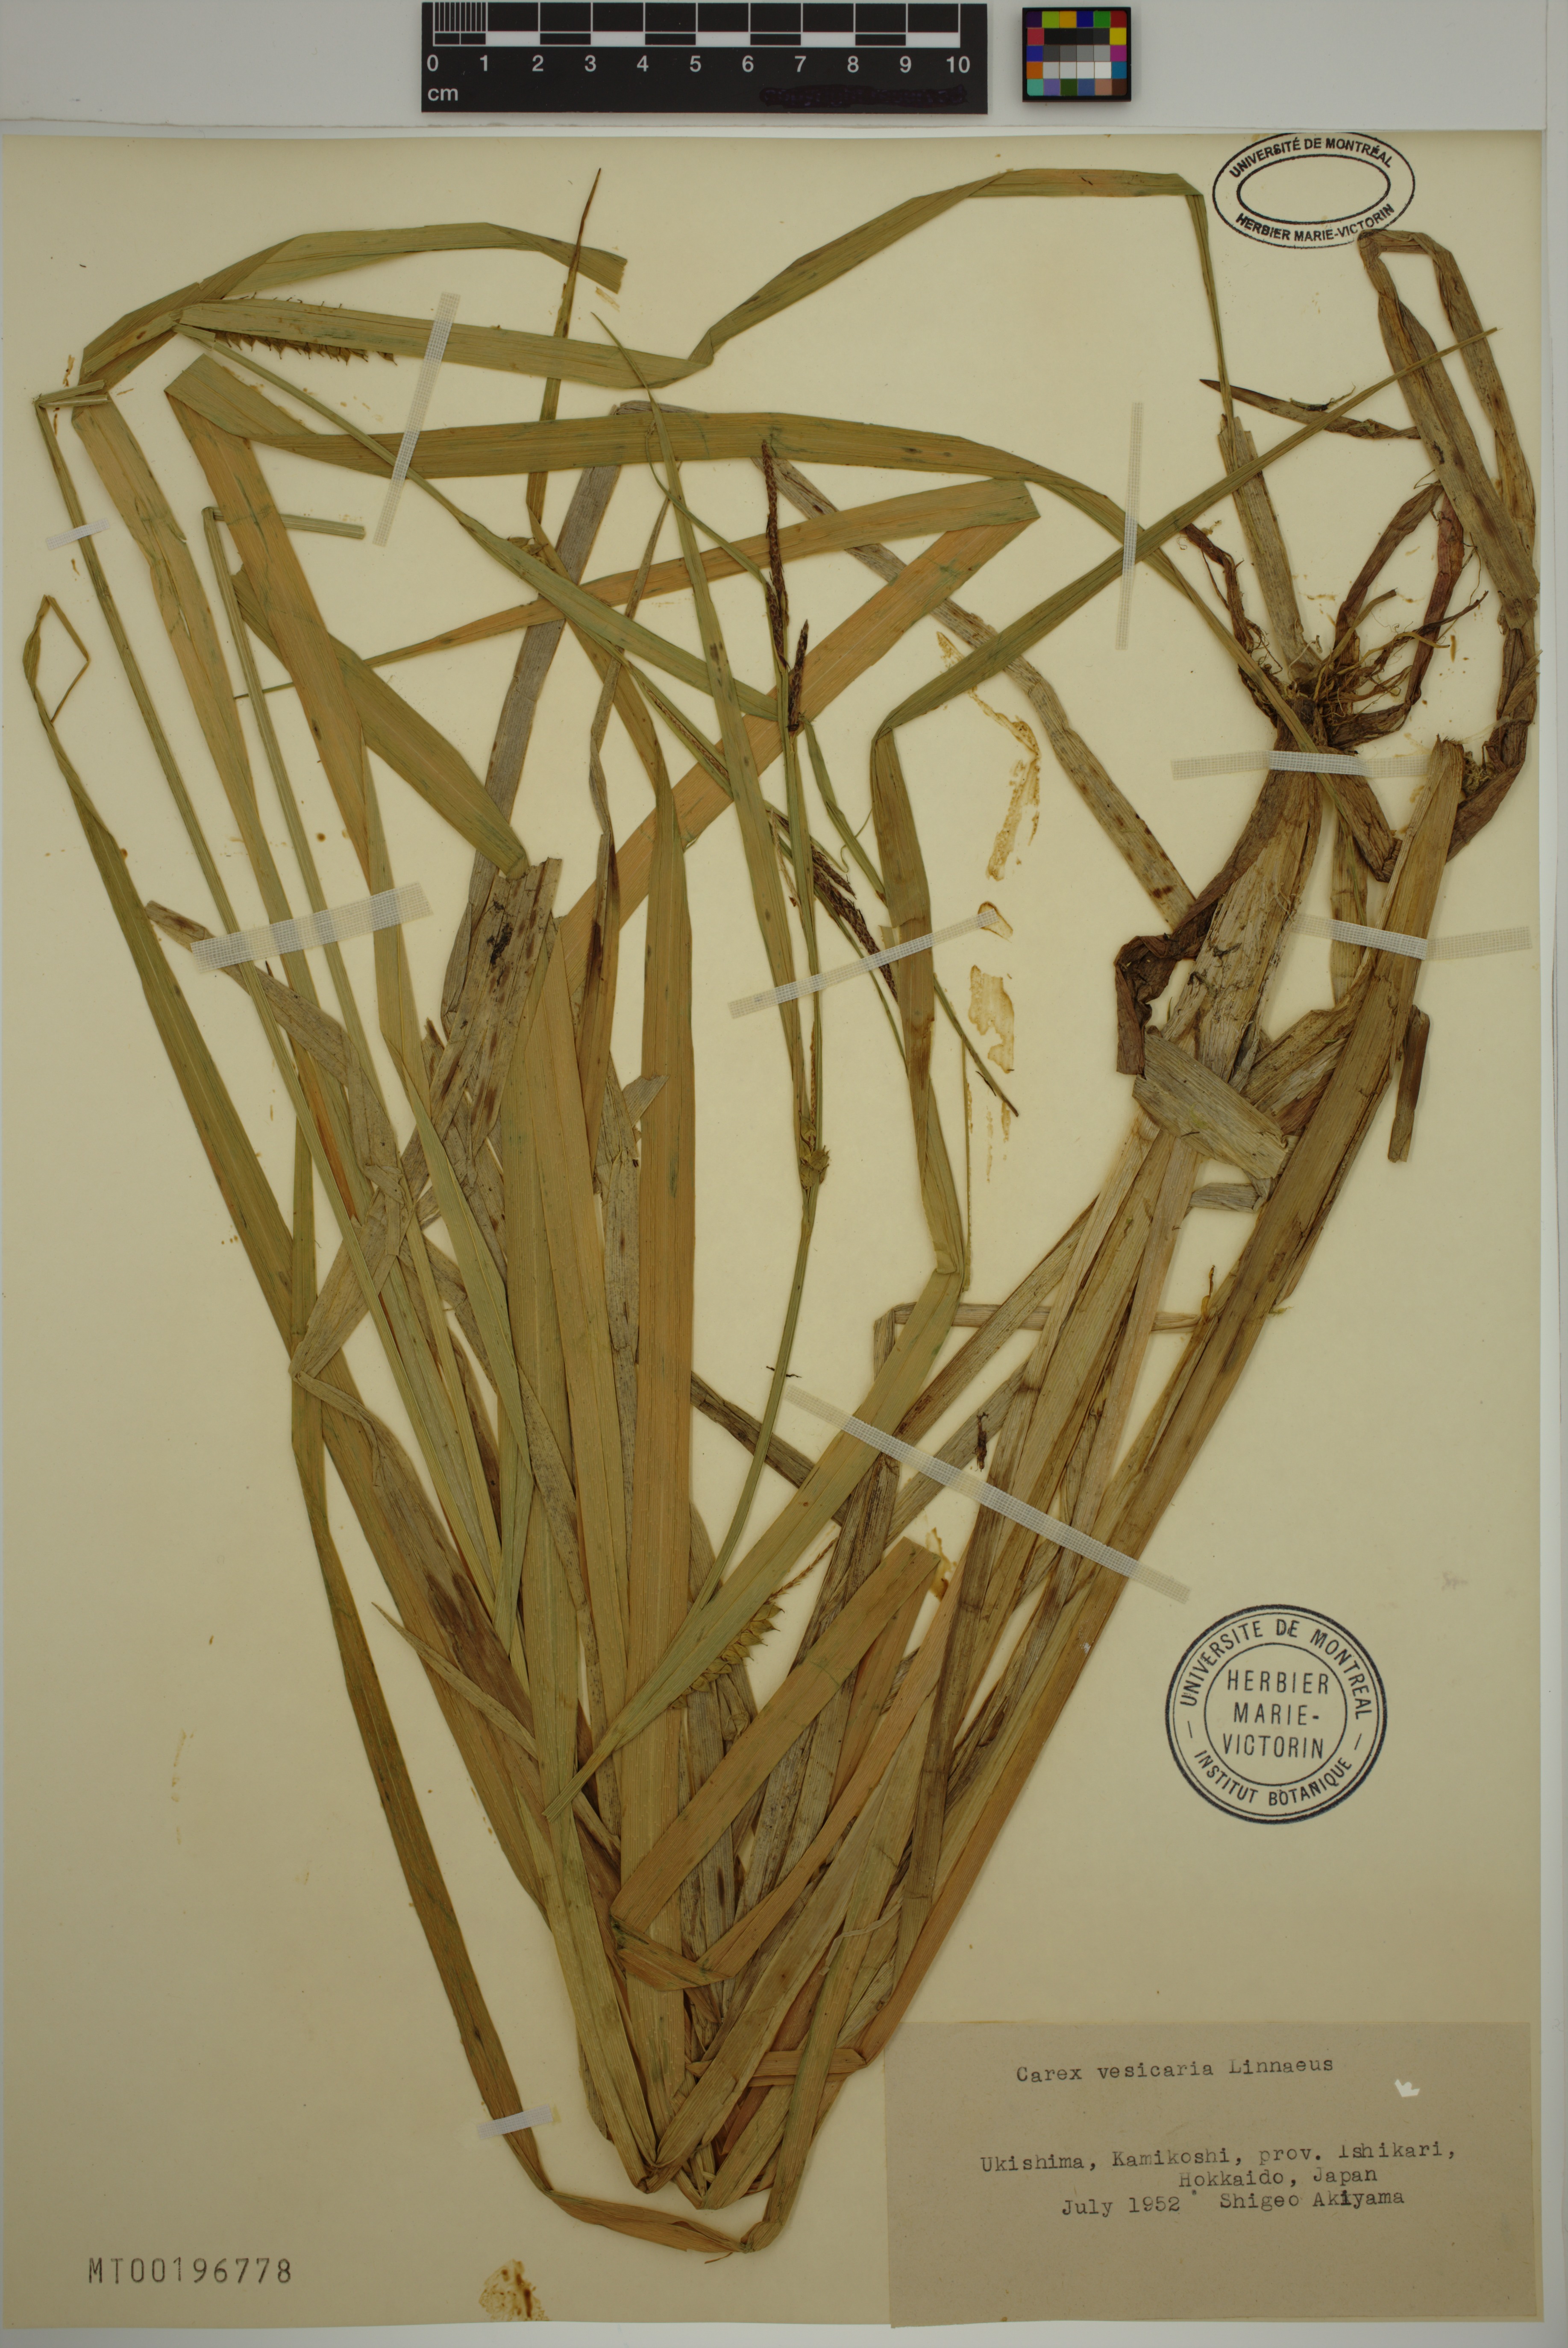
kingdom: Plantae
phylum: Tracheophyta
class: Liliopsida
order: Poales
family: Cyperaceae
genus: Carex
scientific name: Carex vesicaria
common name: Bladder-sedge
